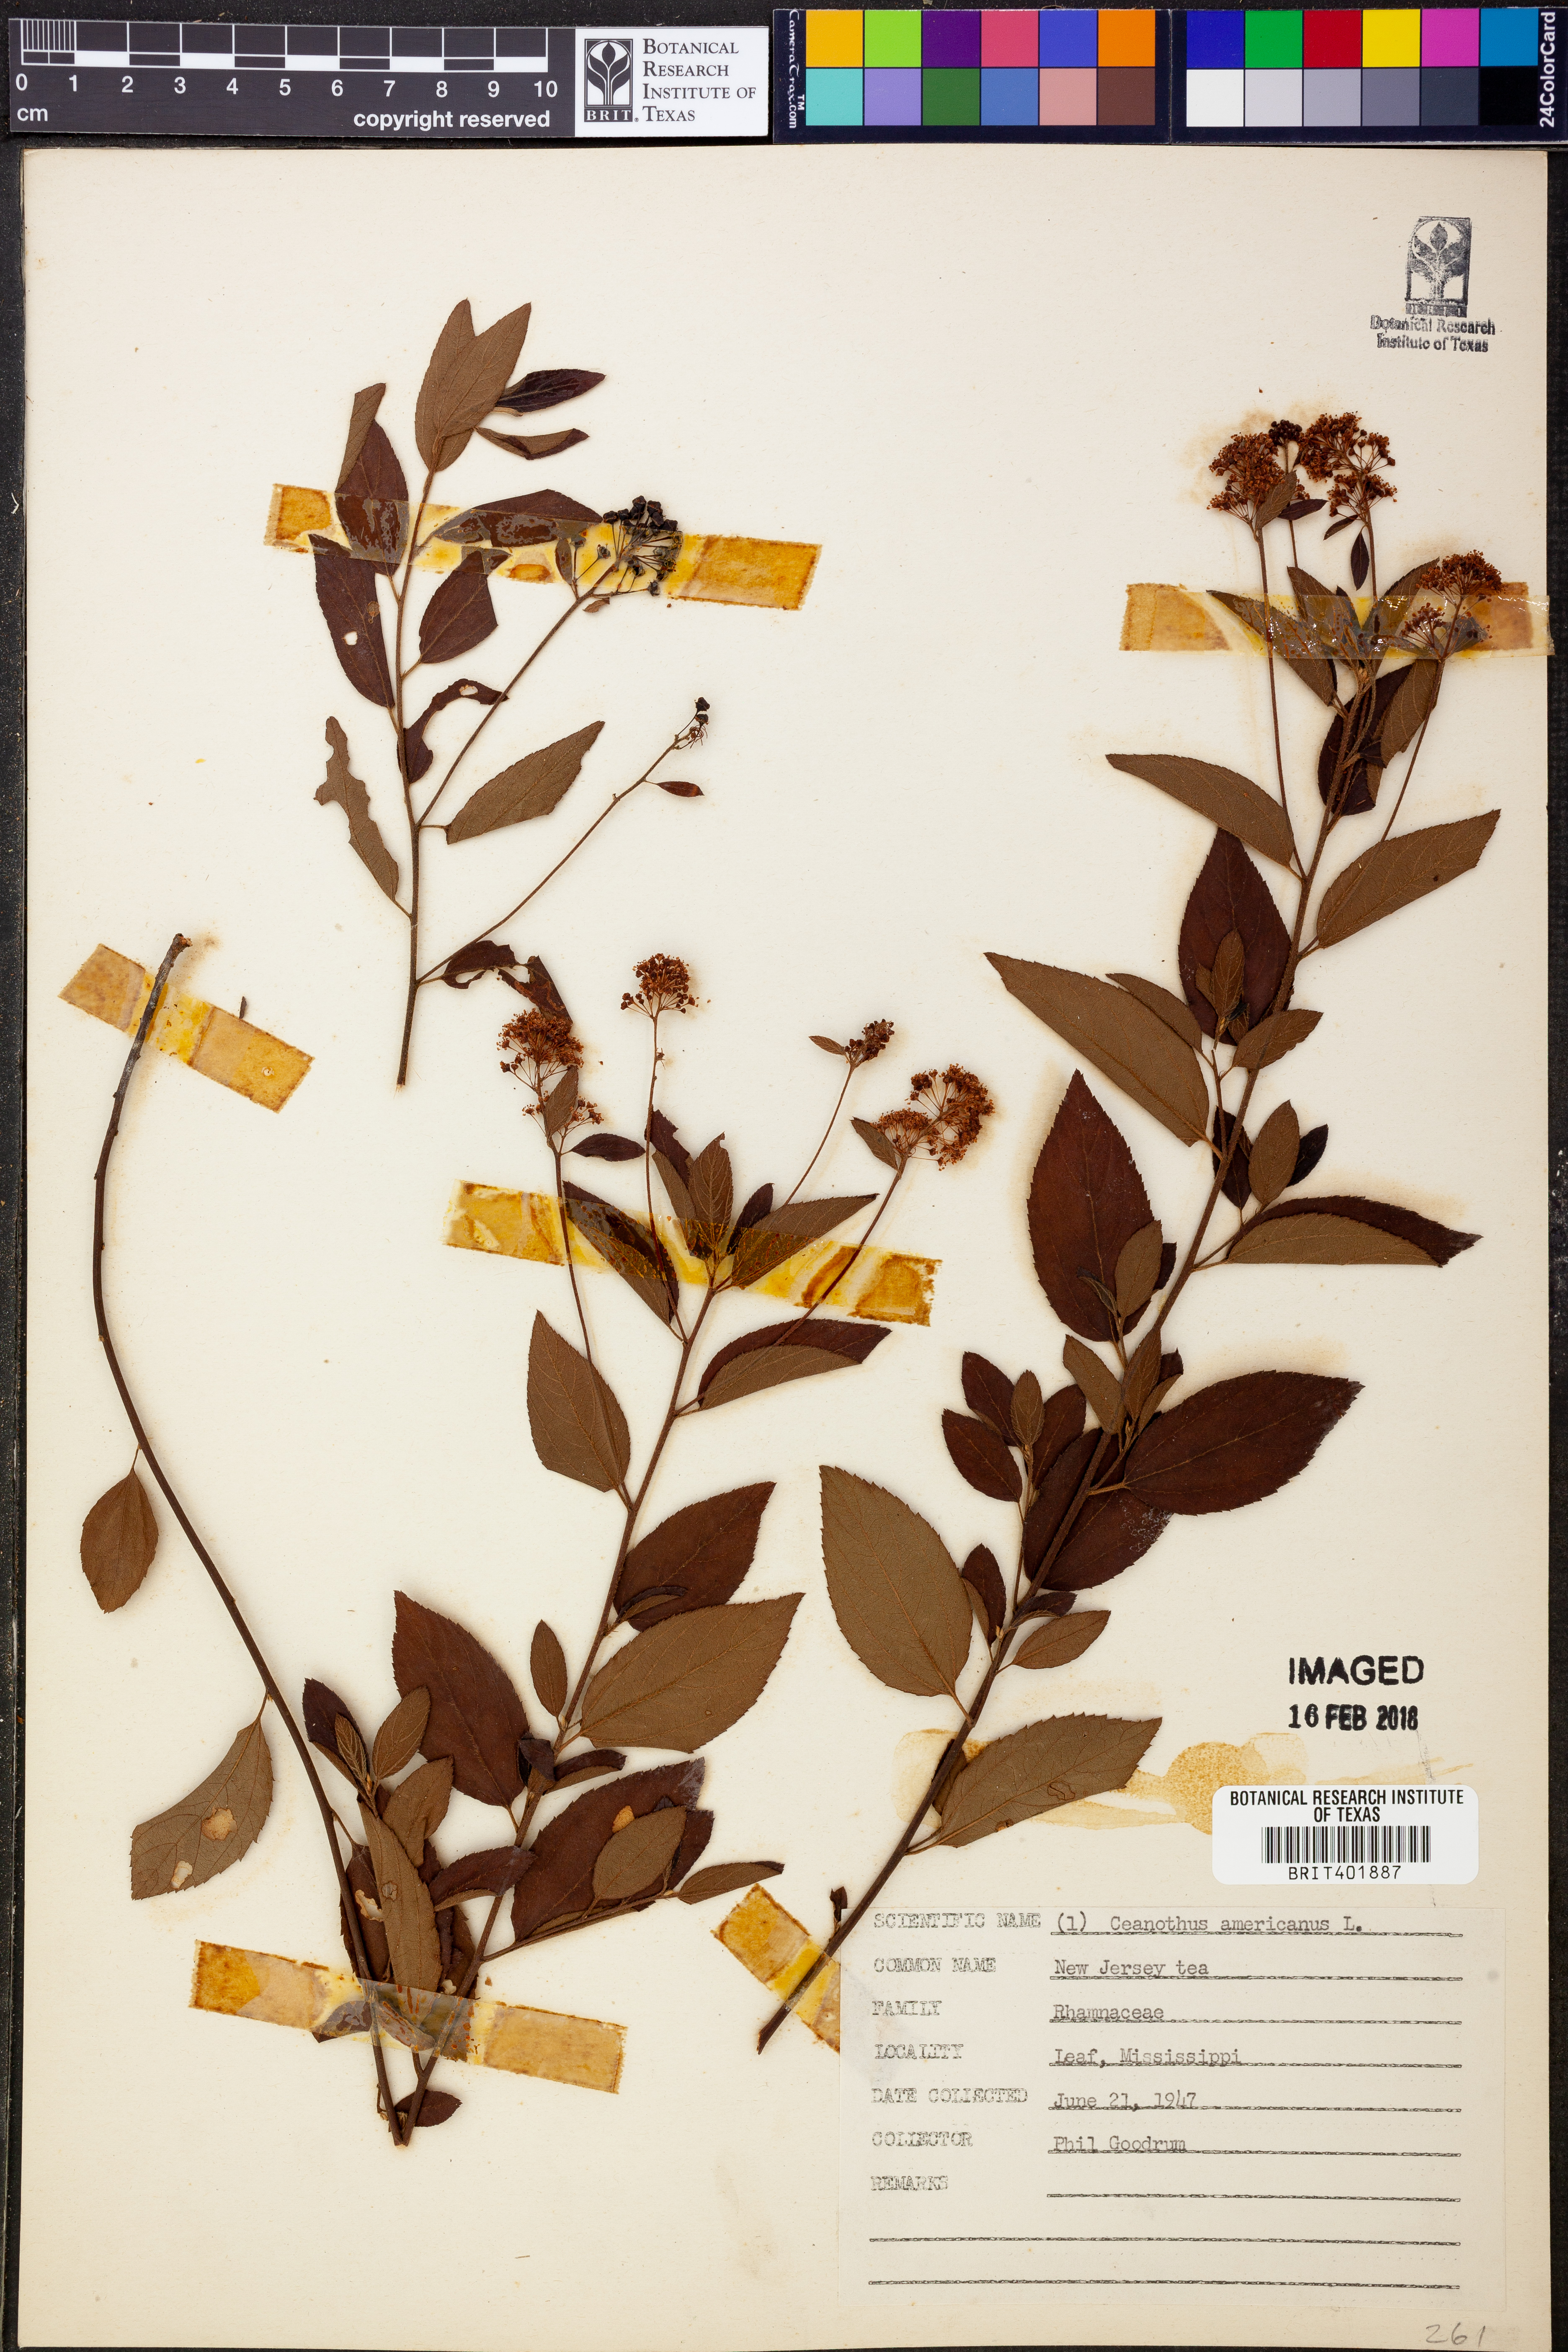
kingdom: Plantae
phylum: Tracheophyta
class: Magnoliopsida
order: Rosales
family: Rhamnaceae
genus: Ceanothus
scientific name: Ceanothus americanus
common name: Redroot
